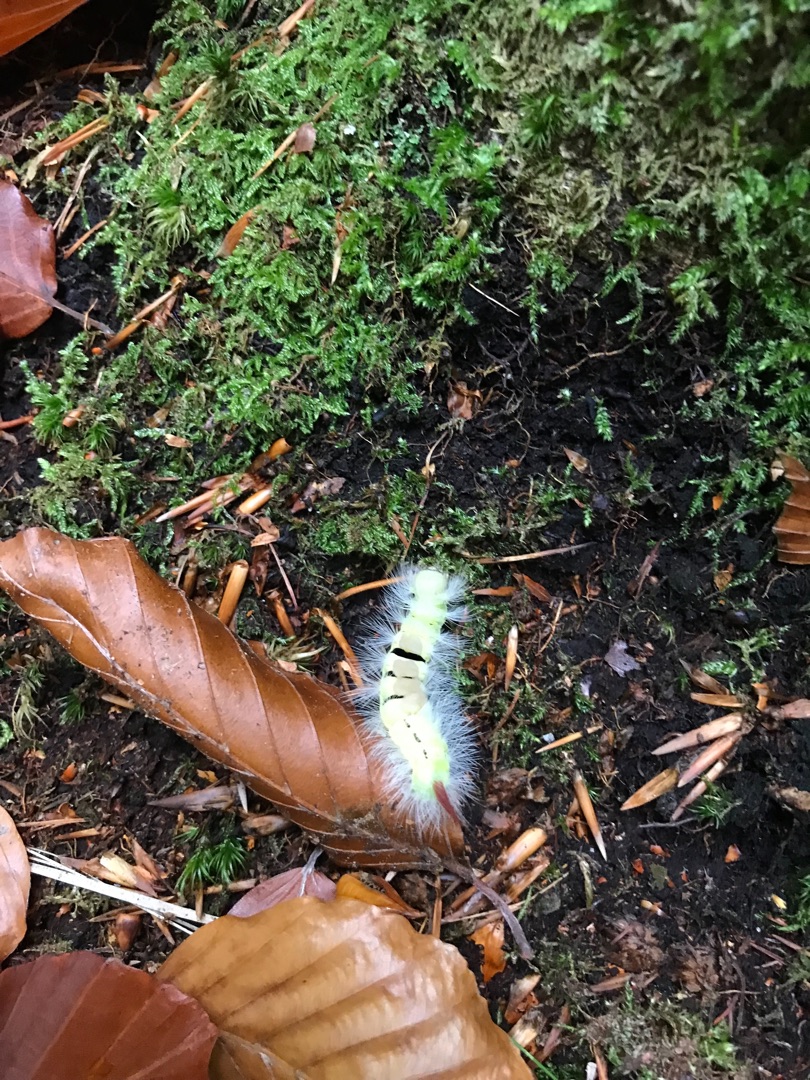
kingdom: Animalia
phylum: Arthropoda
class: Insecta
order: Lepidoptera
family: Erebidae
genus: Calliteara
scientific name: Calliteara pudibunda
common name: Bøgenonne
